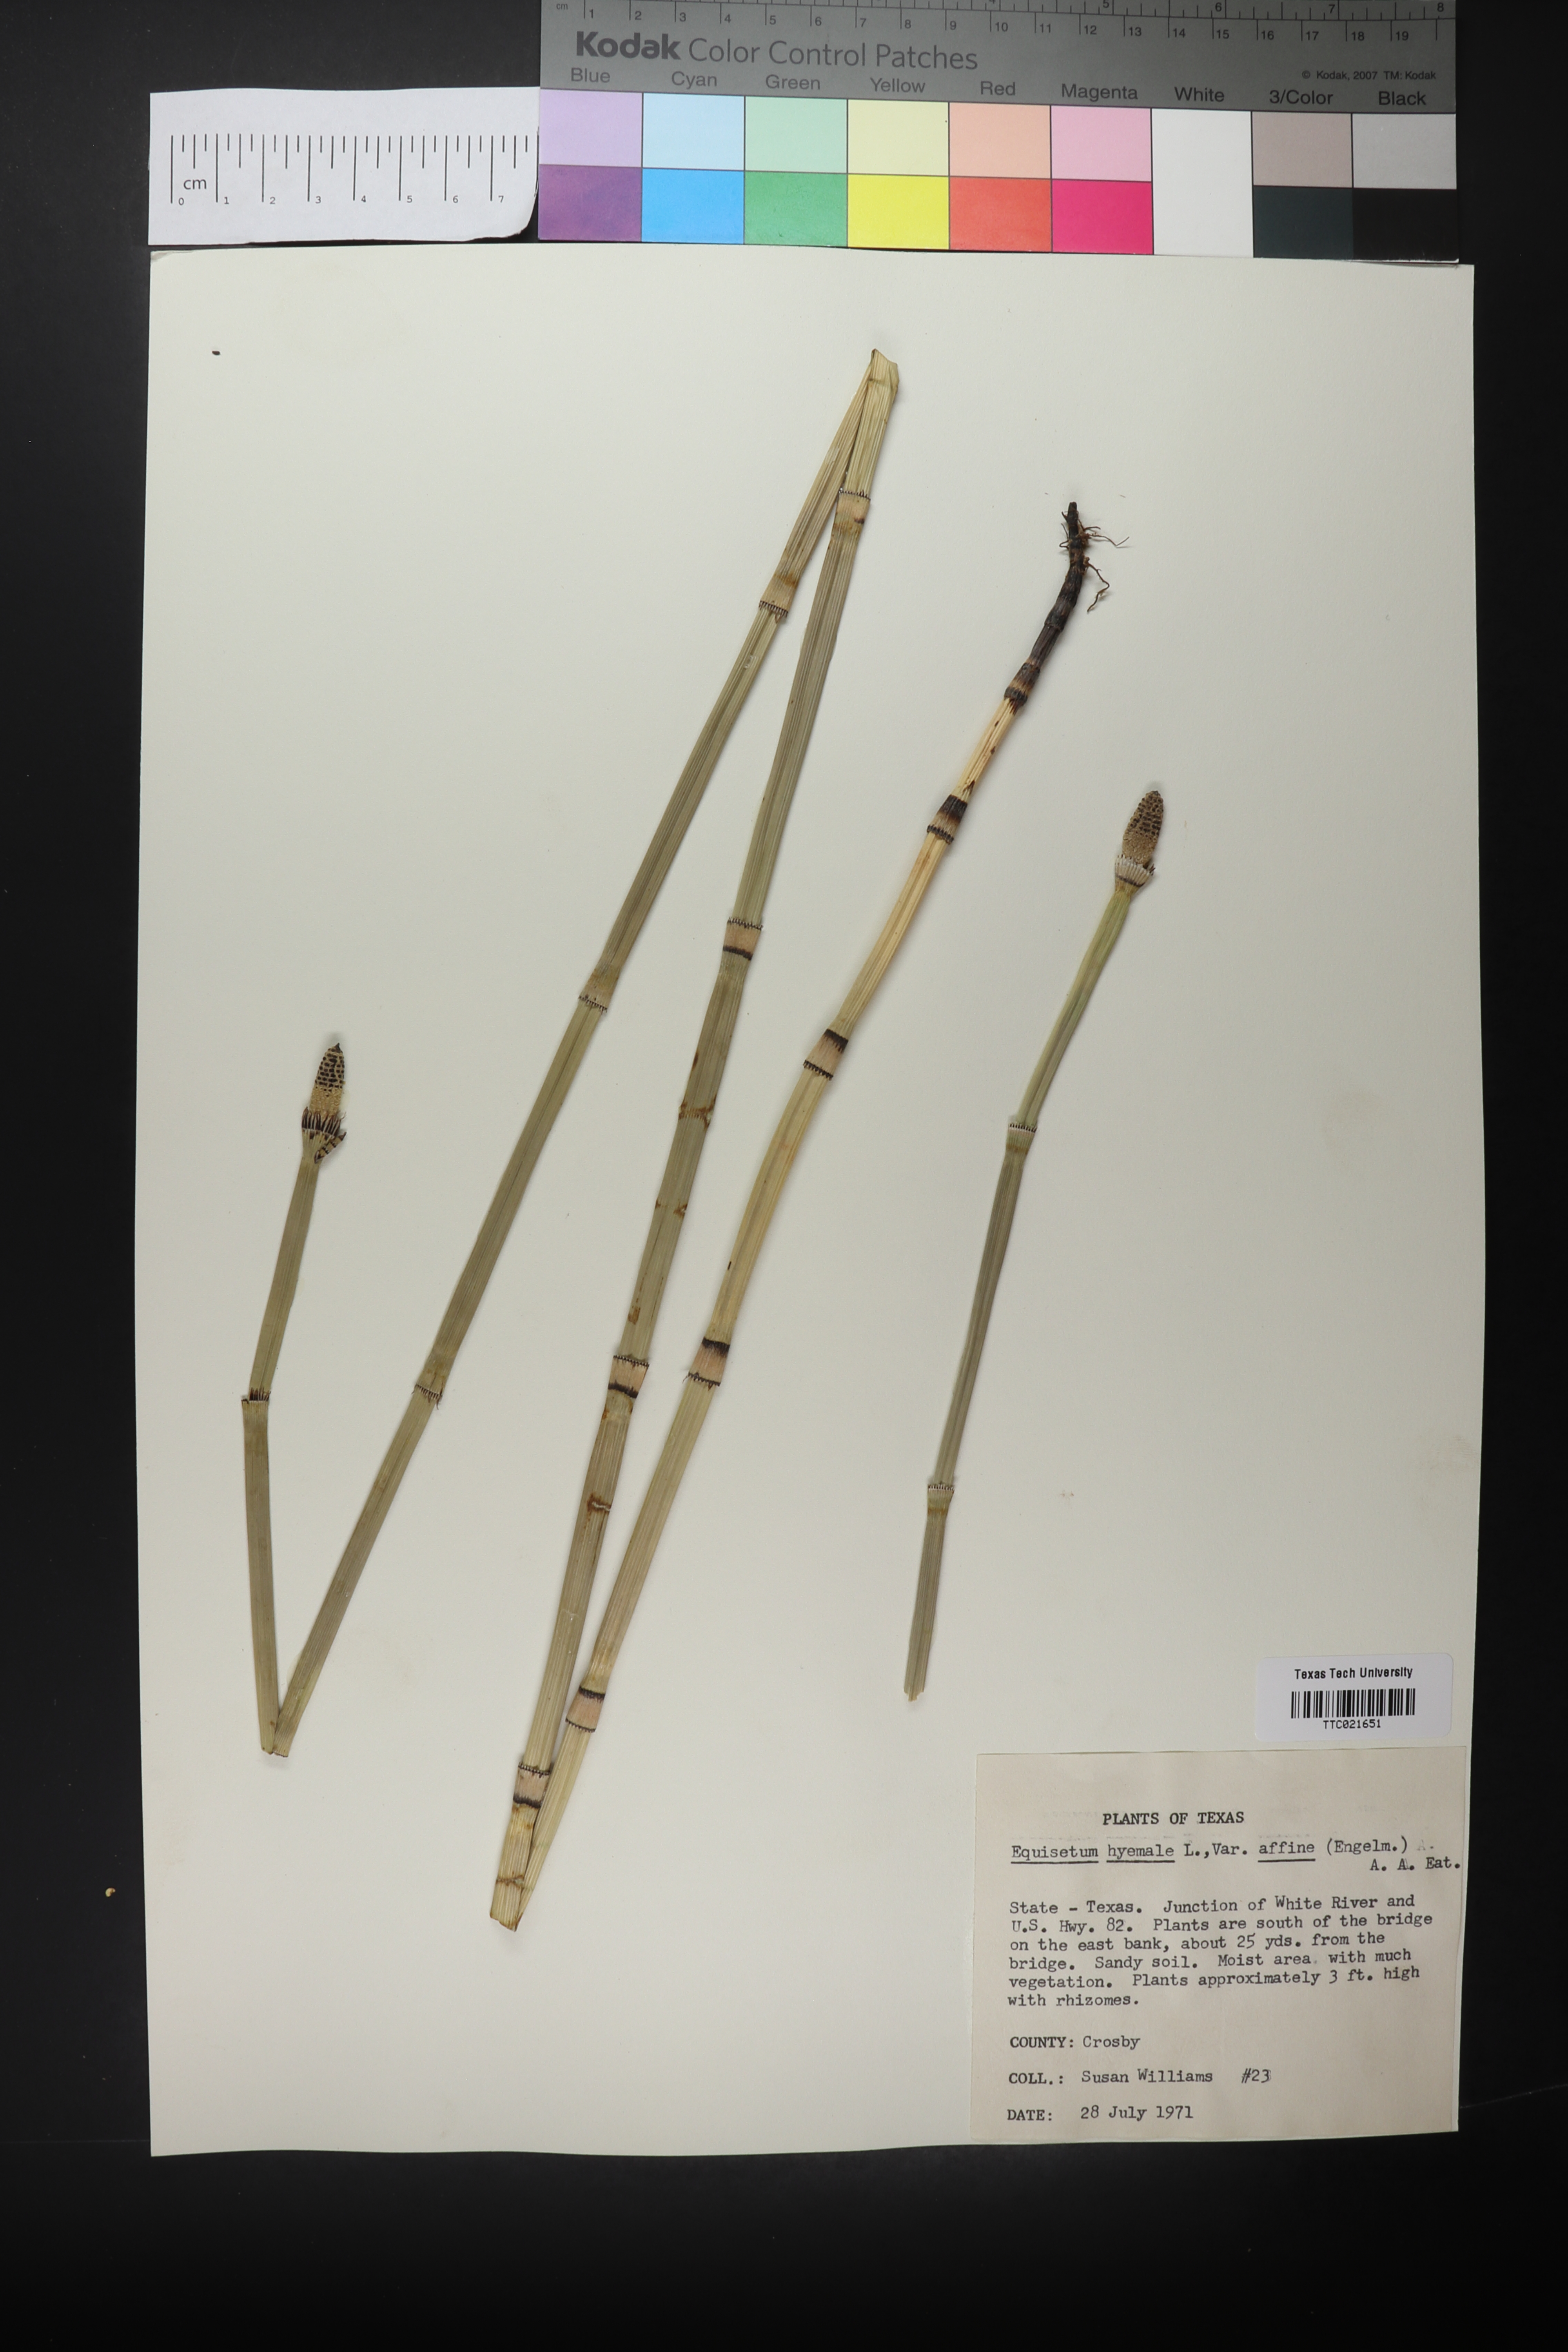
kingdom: Plantae
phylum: Tracheophyta
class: Polypodiopsida
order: Equisetales
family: Equisetaceae
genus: Equisetum
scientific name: Equisetum praealtum
